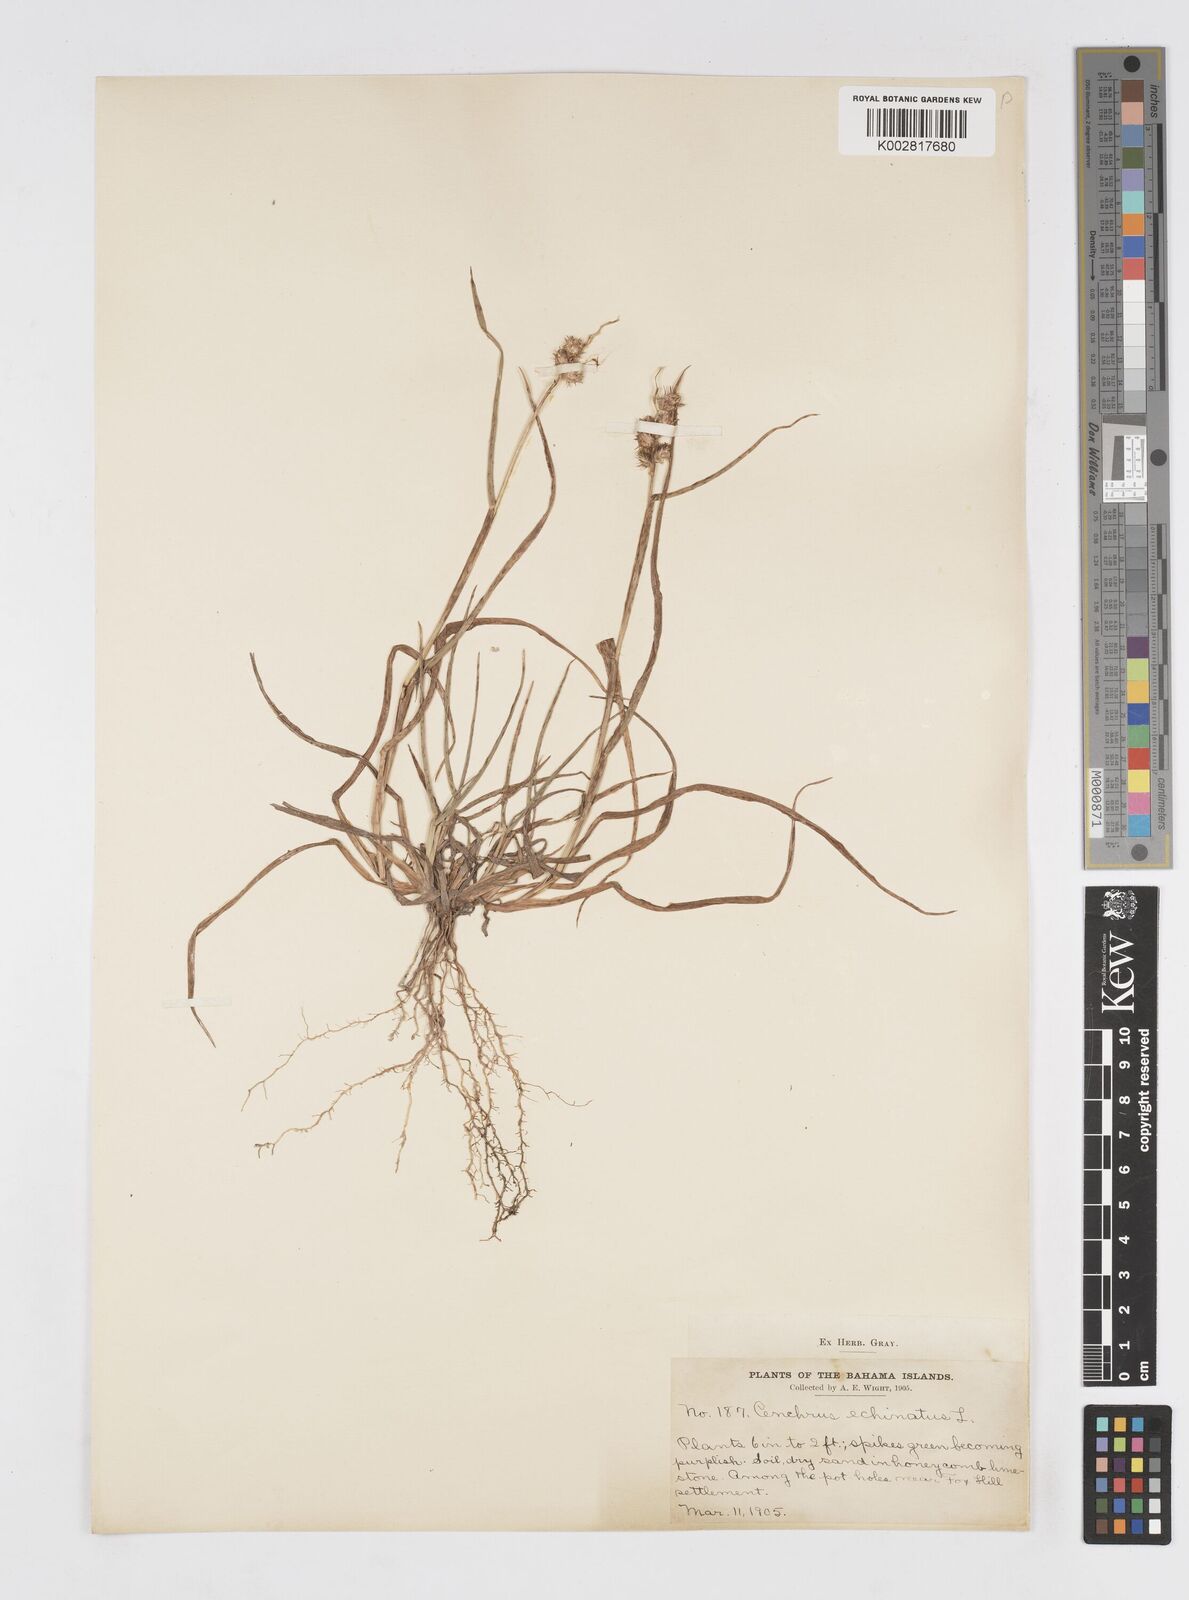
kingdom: Plantae
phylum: Tracheophyta
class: Liliopsida
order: Poales
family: Poaceae
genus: Cenchrus
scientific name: Cenchrus
